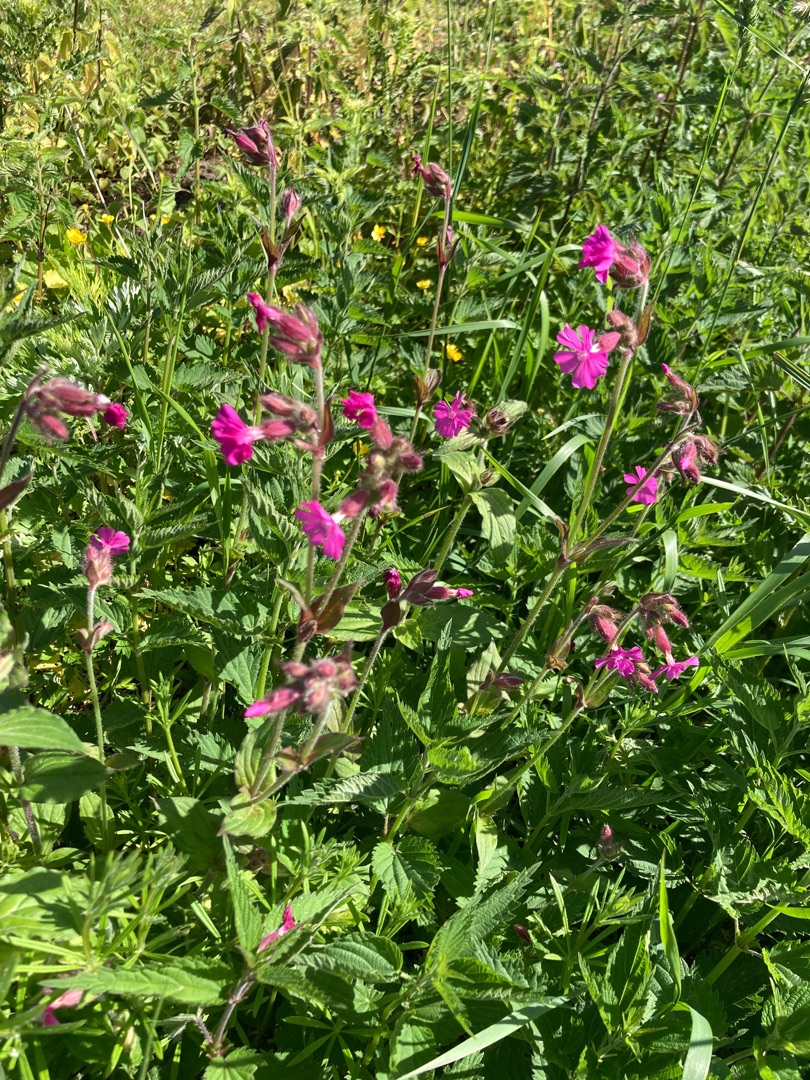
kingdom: Plantae
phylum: Tracheophyta
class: Magnoliopsida
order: Caryophyllales
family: Caryophyllaceae
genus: Silene
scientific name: Silene dioica
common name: Dagpragtstjerne
